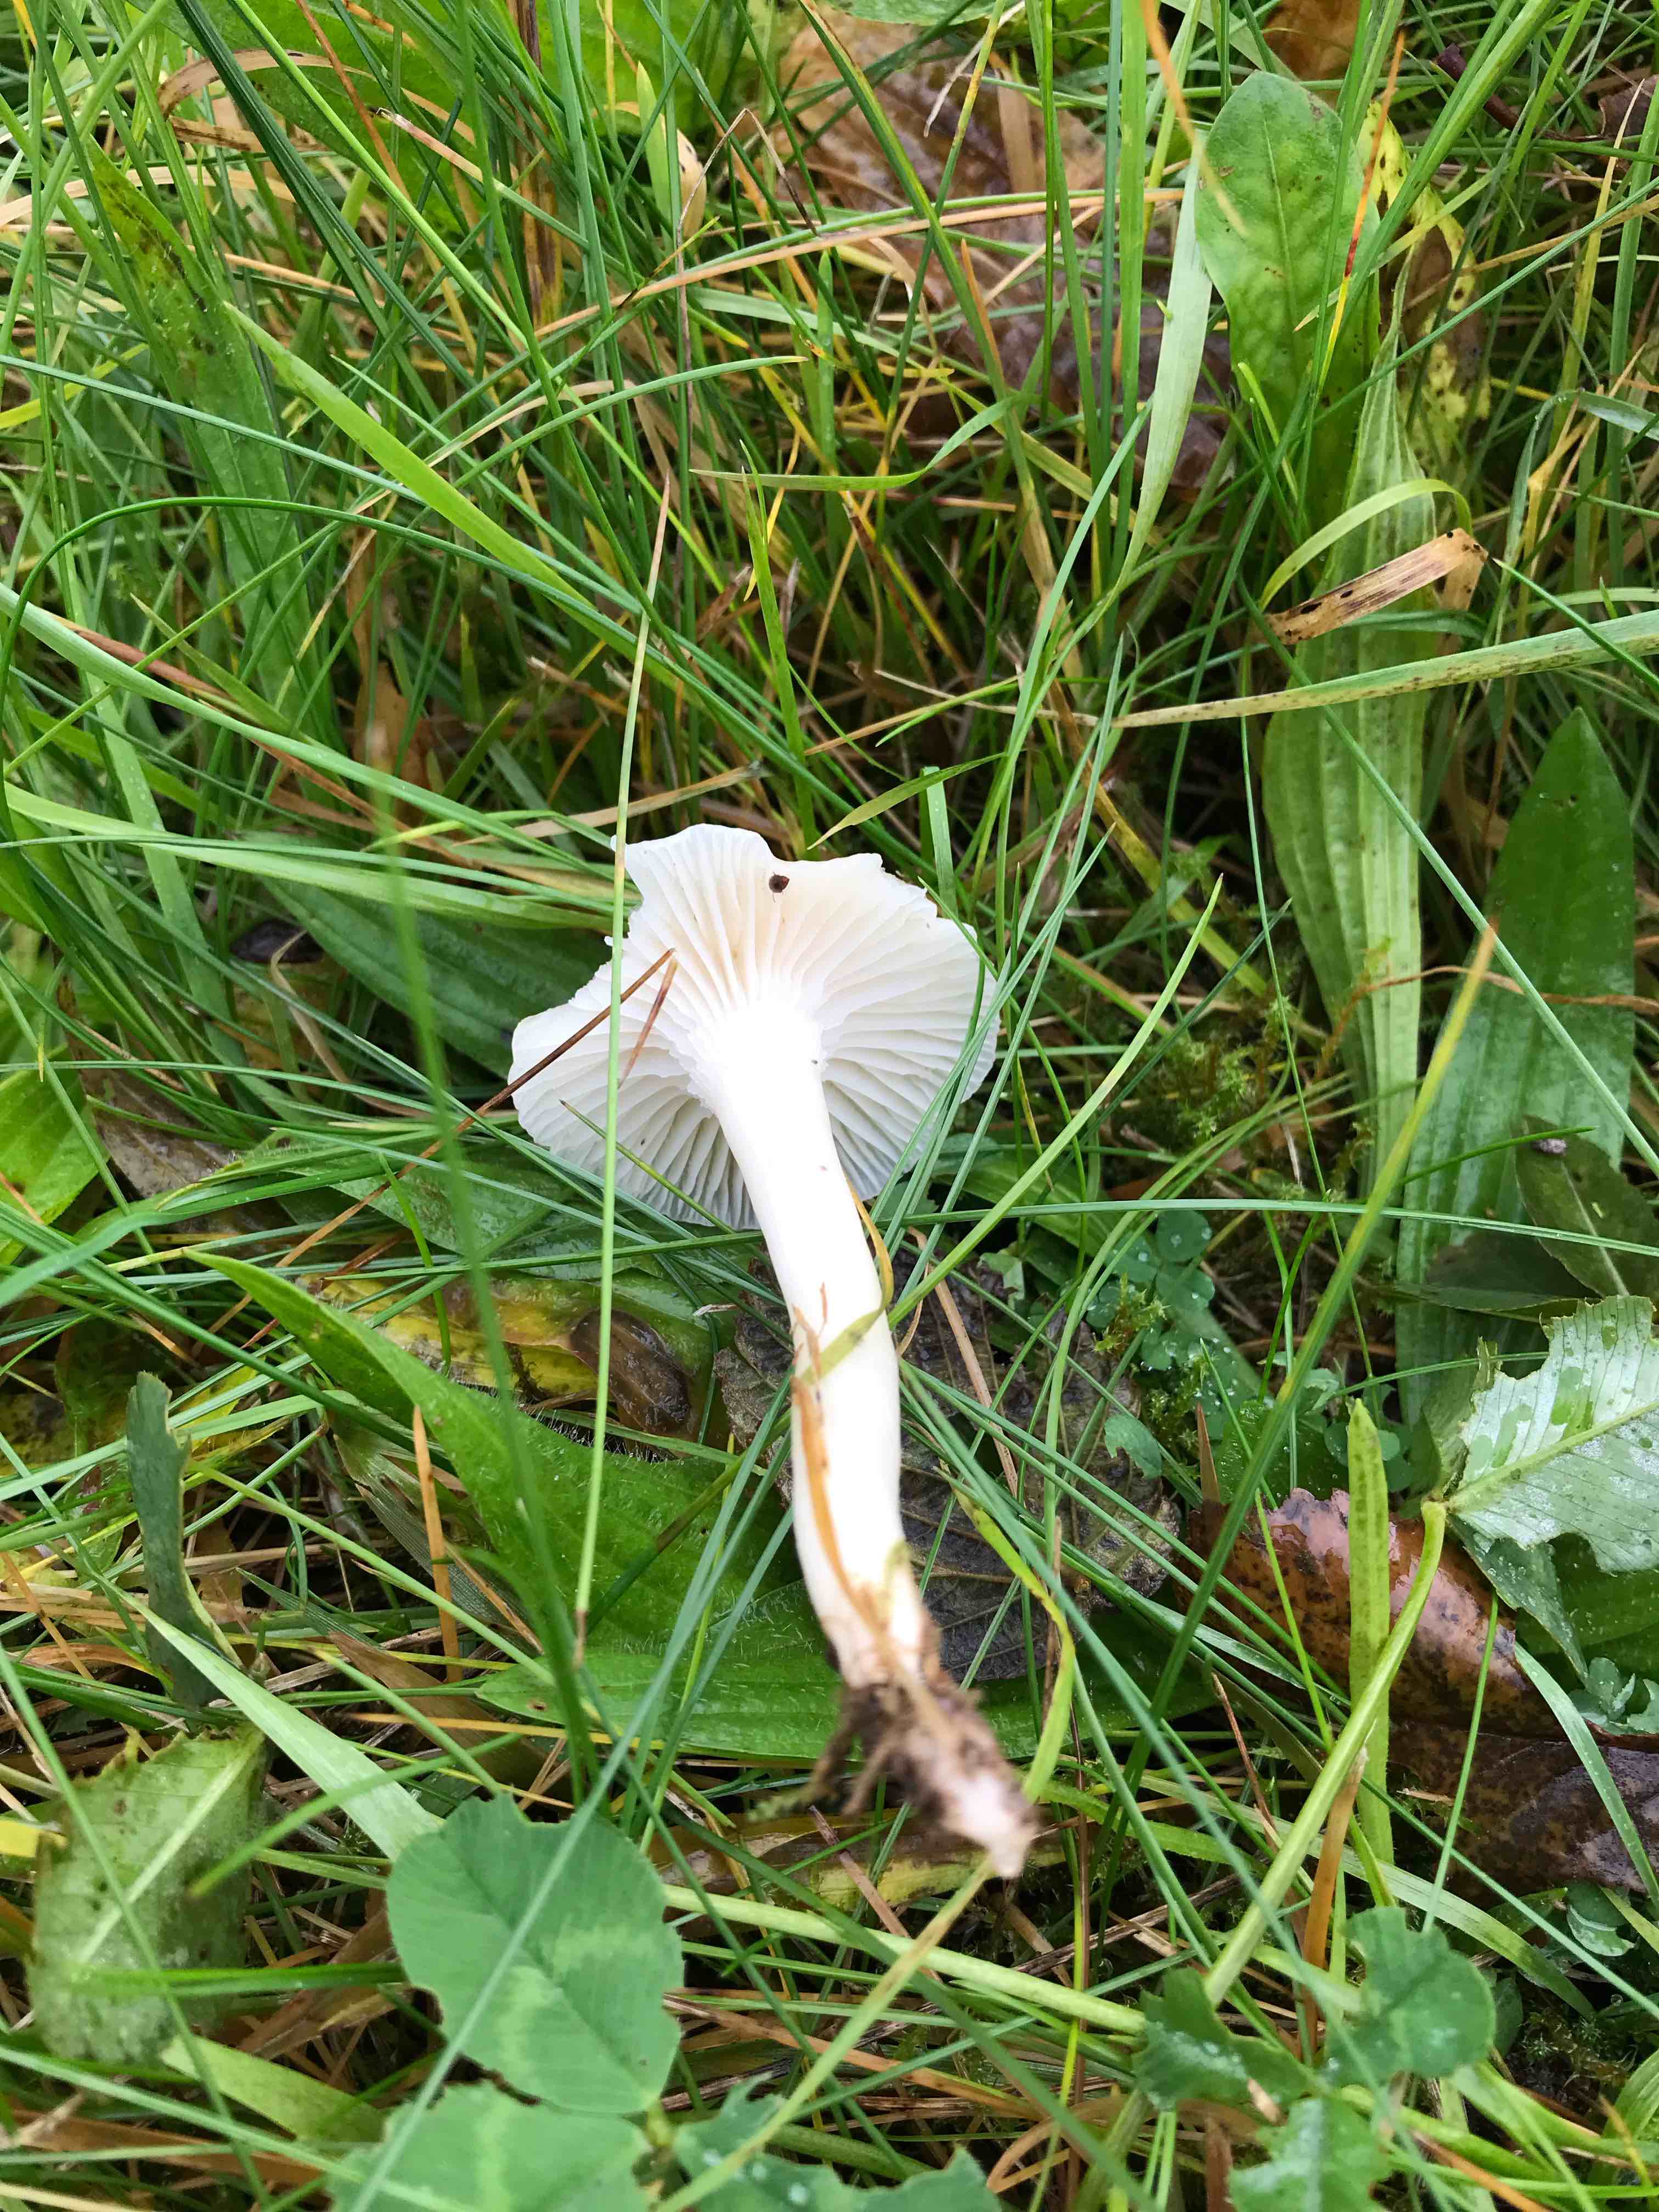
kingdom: Fungi
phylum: Basidiomycota
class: Agaricomycetes
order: Agaricales
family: Hygrophoraceae
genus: Cuphophyllus
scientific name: Cuphophyllus virgineus
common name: snehvid vokshat
